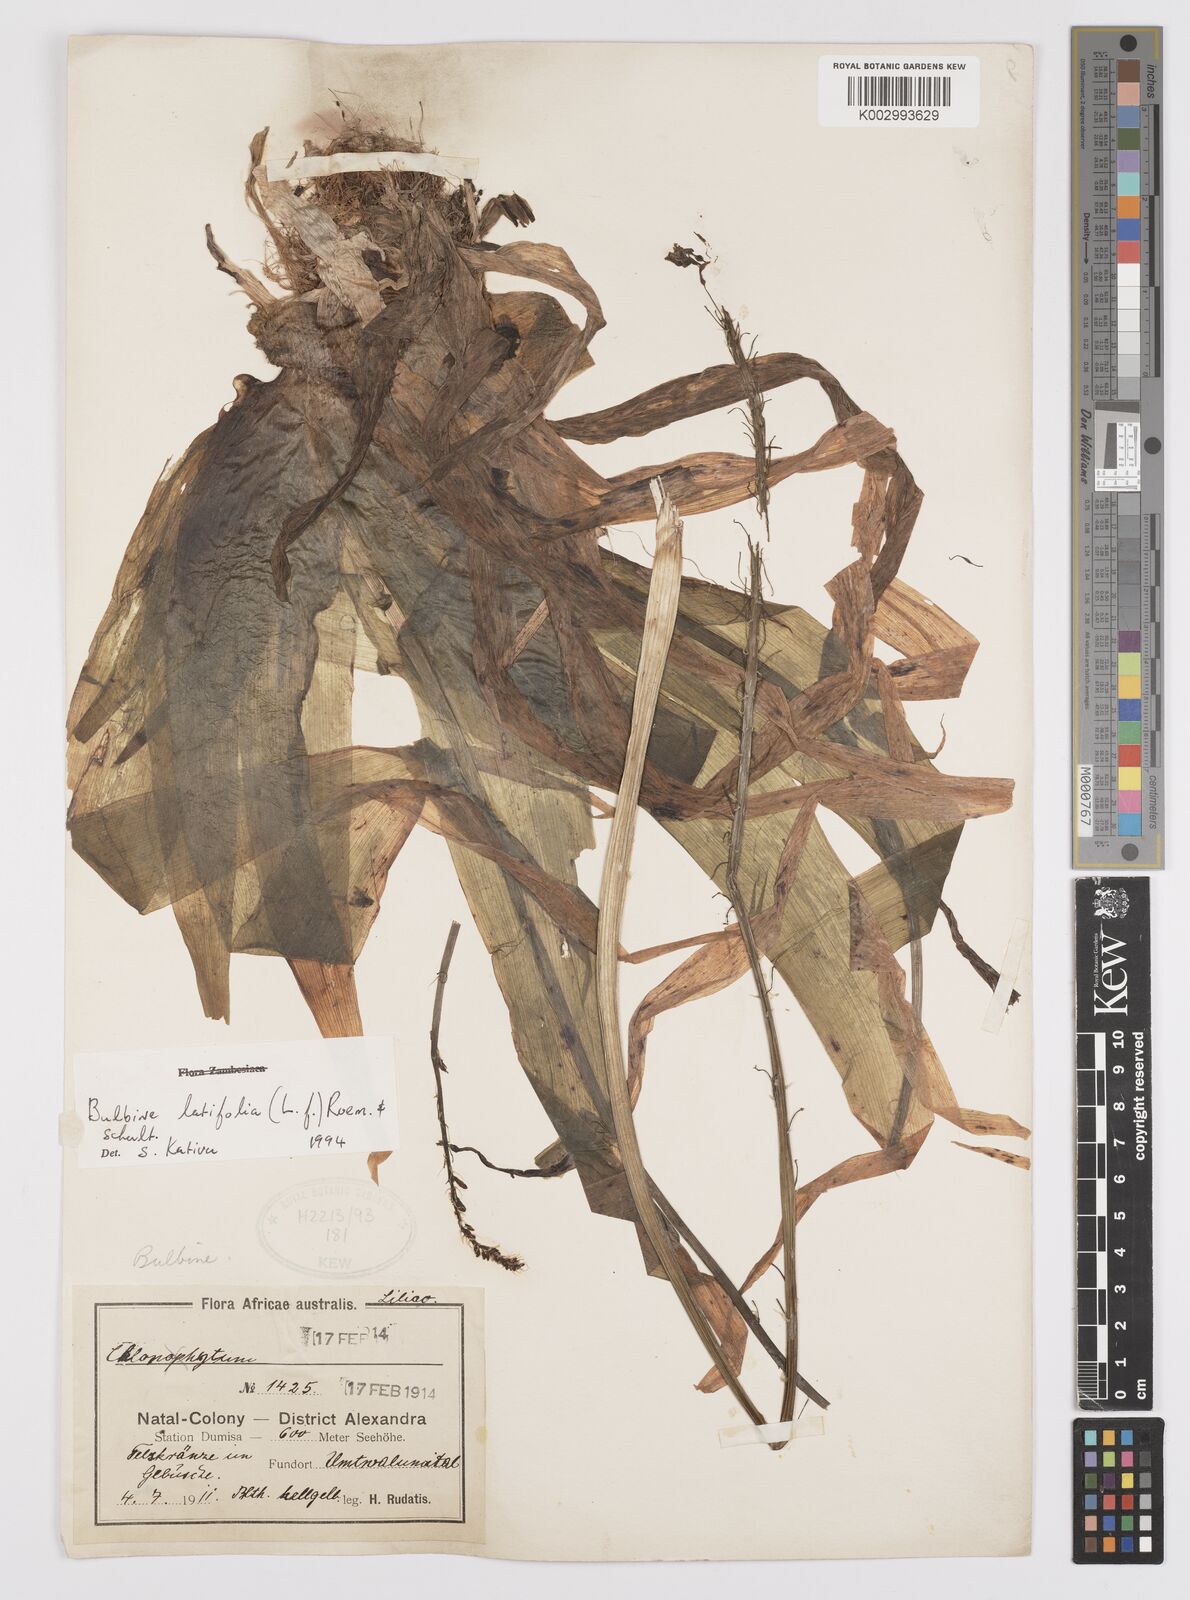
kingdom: Plantae
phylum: Tracheophyta
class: Liliopsida
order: Asparagales
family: Asphodelaceae
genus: Bulbine
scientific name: Bulbine latifolia
